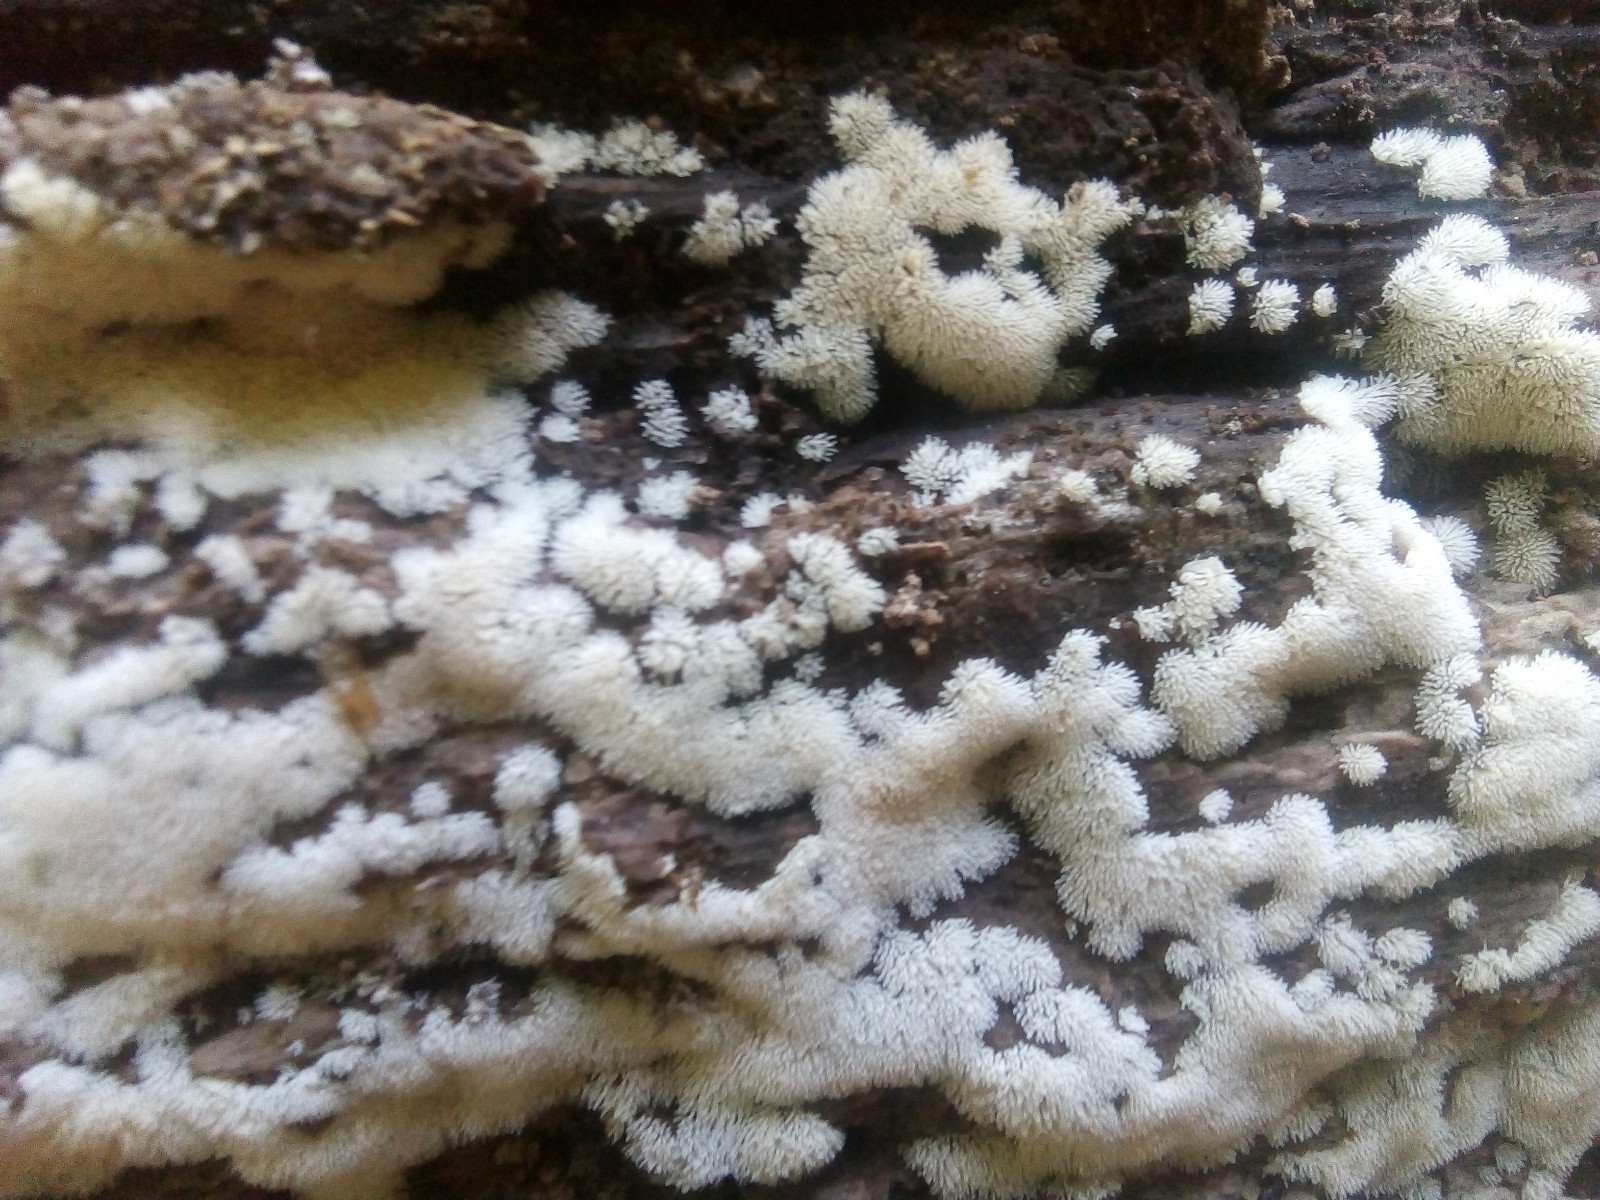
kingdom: Protozoa
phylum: Mycetozoa
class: Protosteliomycetes
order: Ceratiomyxales
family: Ceratiomyxaceae
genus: Ceratiomyxa
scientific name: Ceratiomyxa fruticulosa
